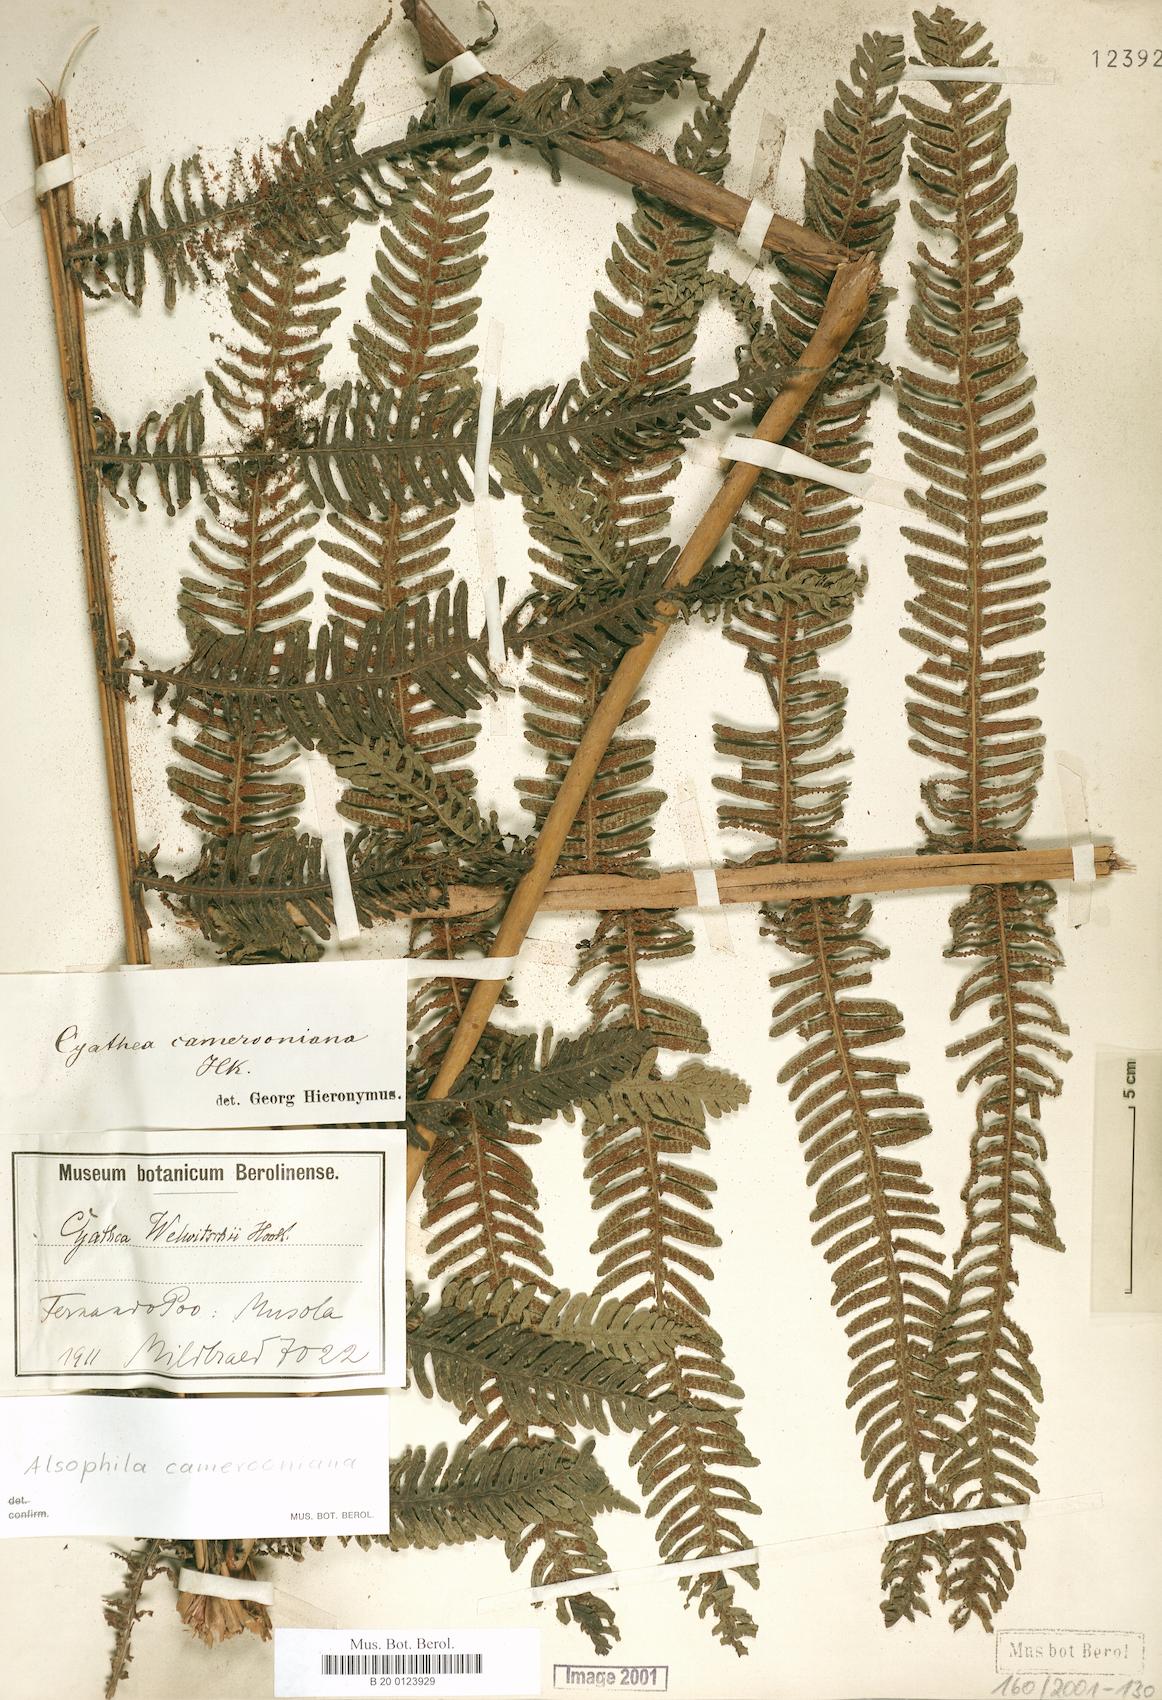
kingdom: Plantae
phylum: Tracheophyta
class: Polypodiopsida
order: Cyatheales
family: Cyatheaceae
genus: Alsophila
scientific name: Alsophila camerooniana
